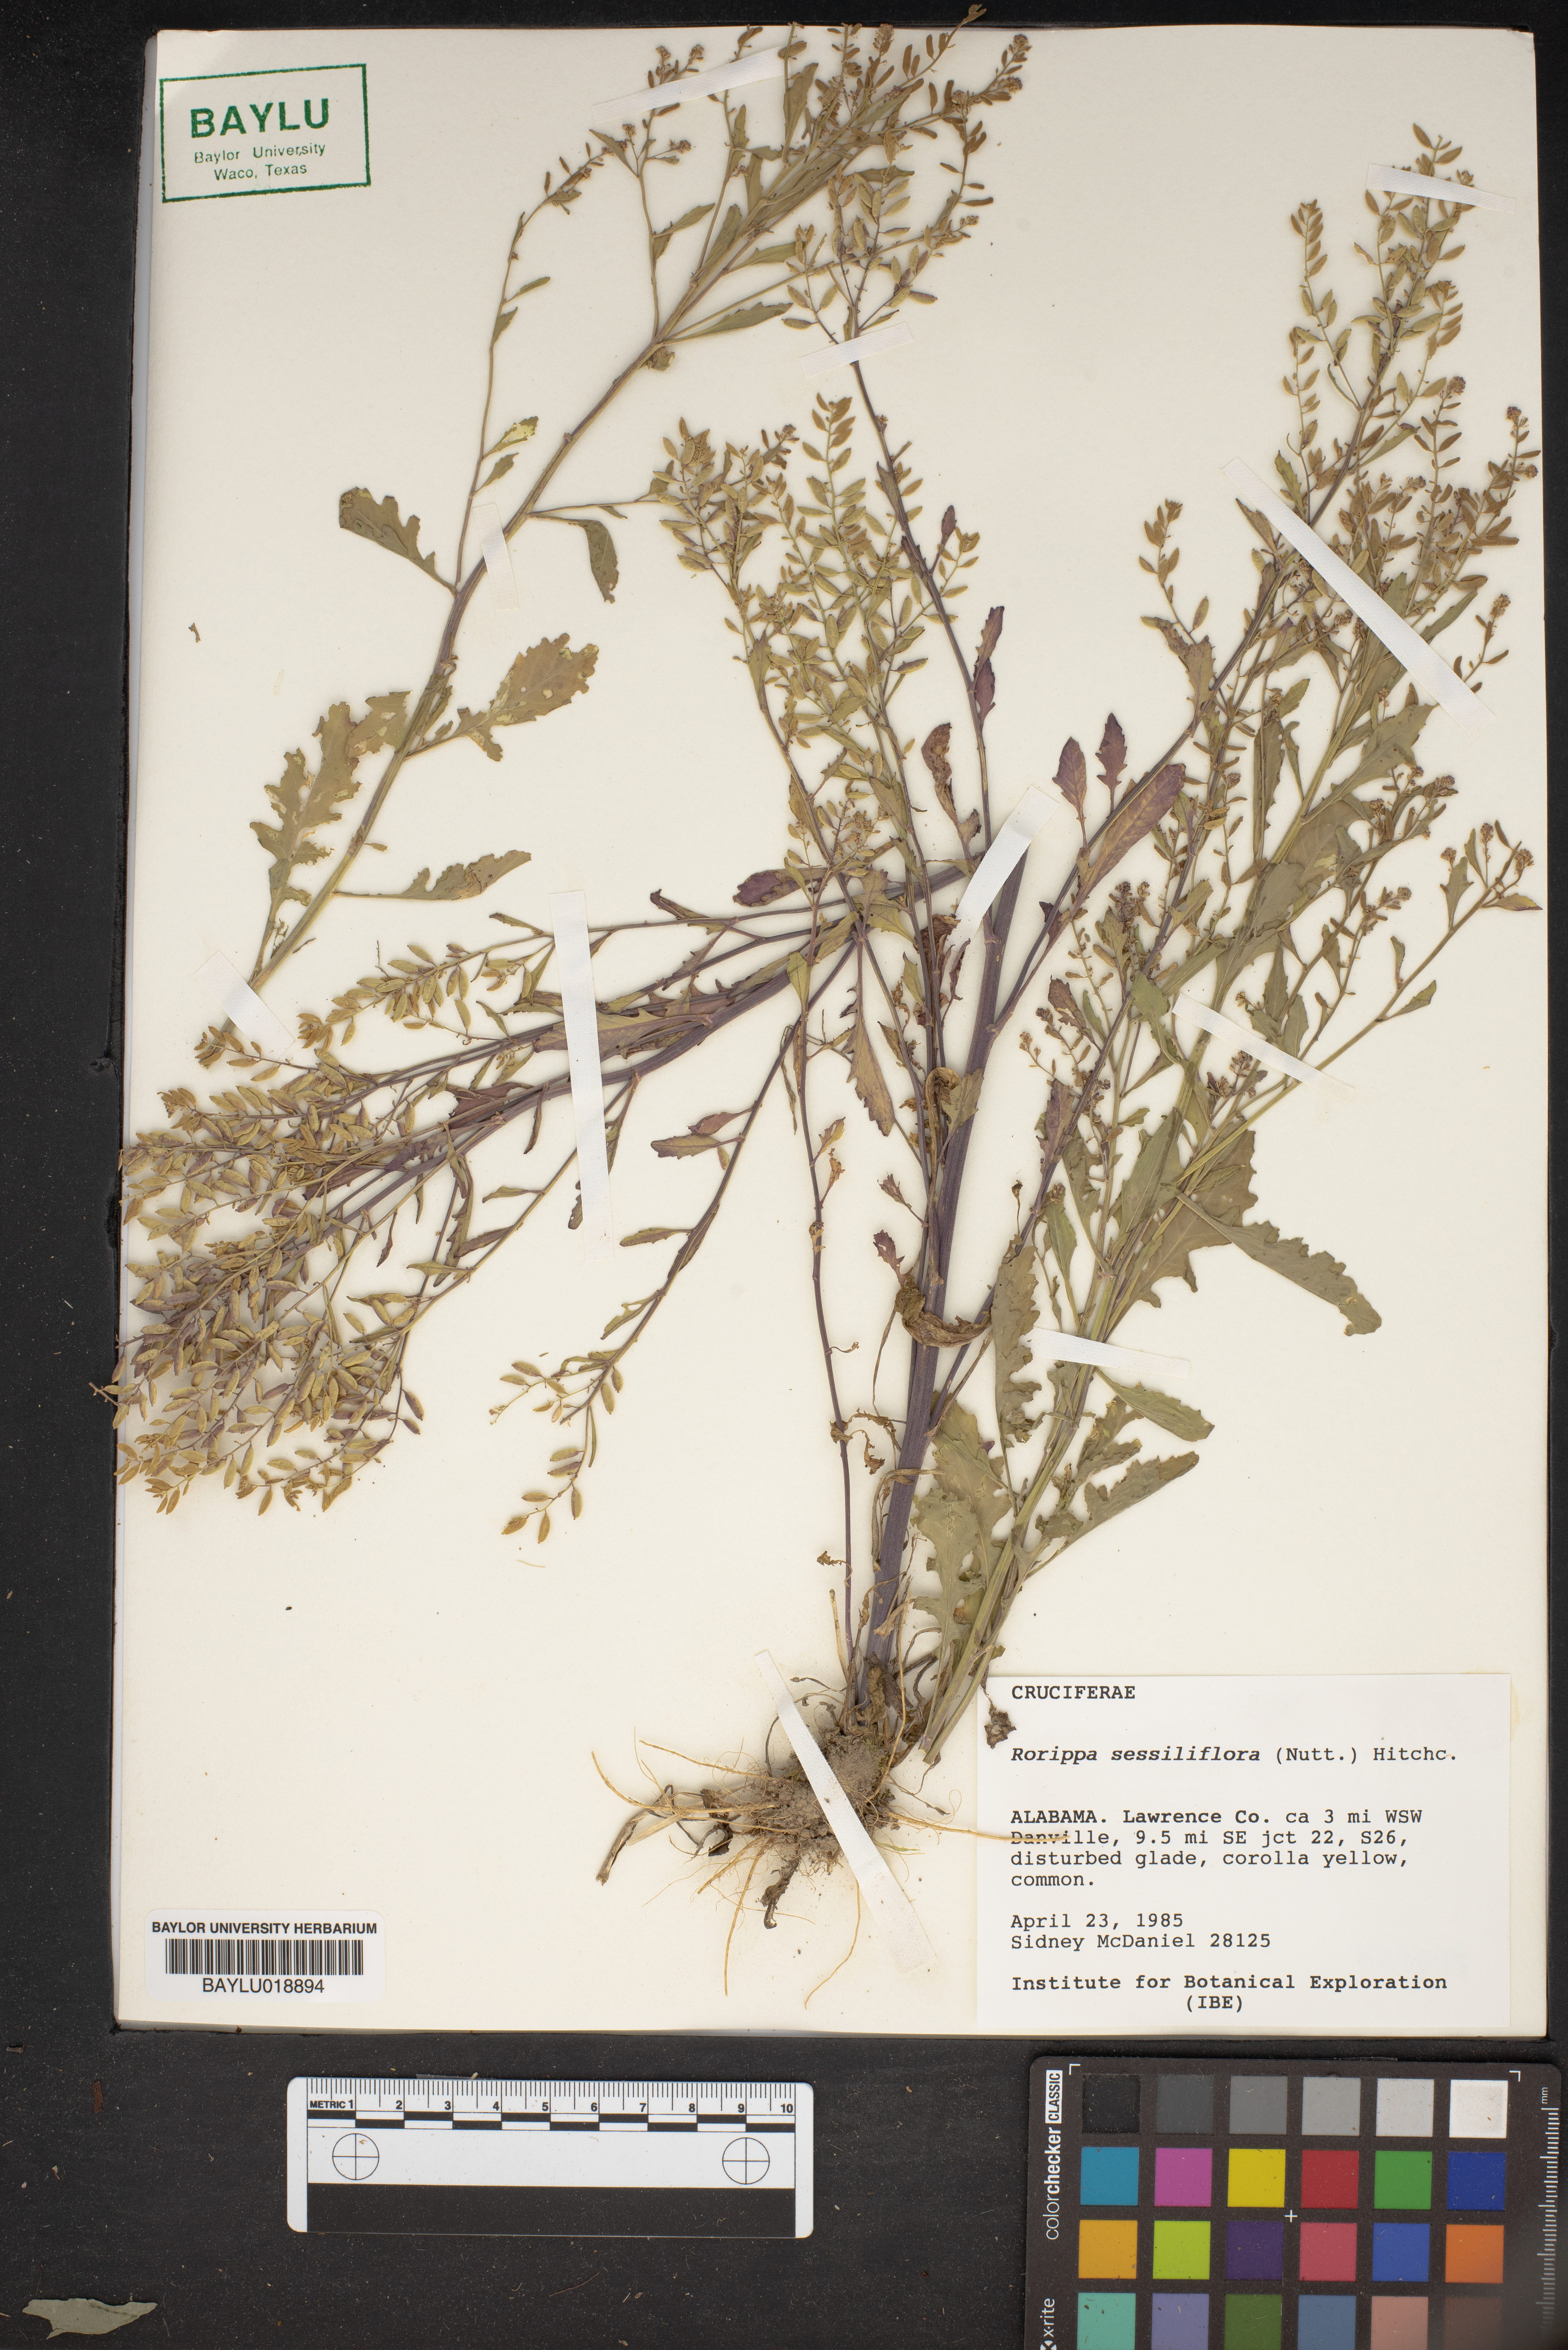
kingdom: Plantae
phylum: Tracheophyta
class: Magnoliopsida
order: Brassicales
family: Brassicaceae
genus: Rorippa
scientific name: Rorippa sessiliflora
